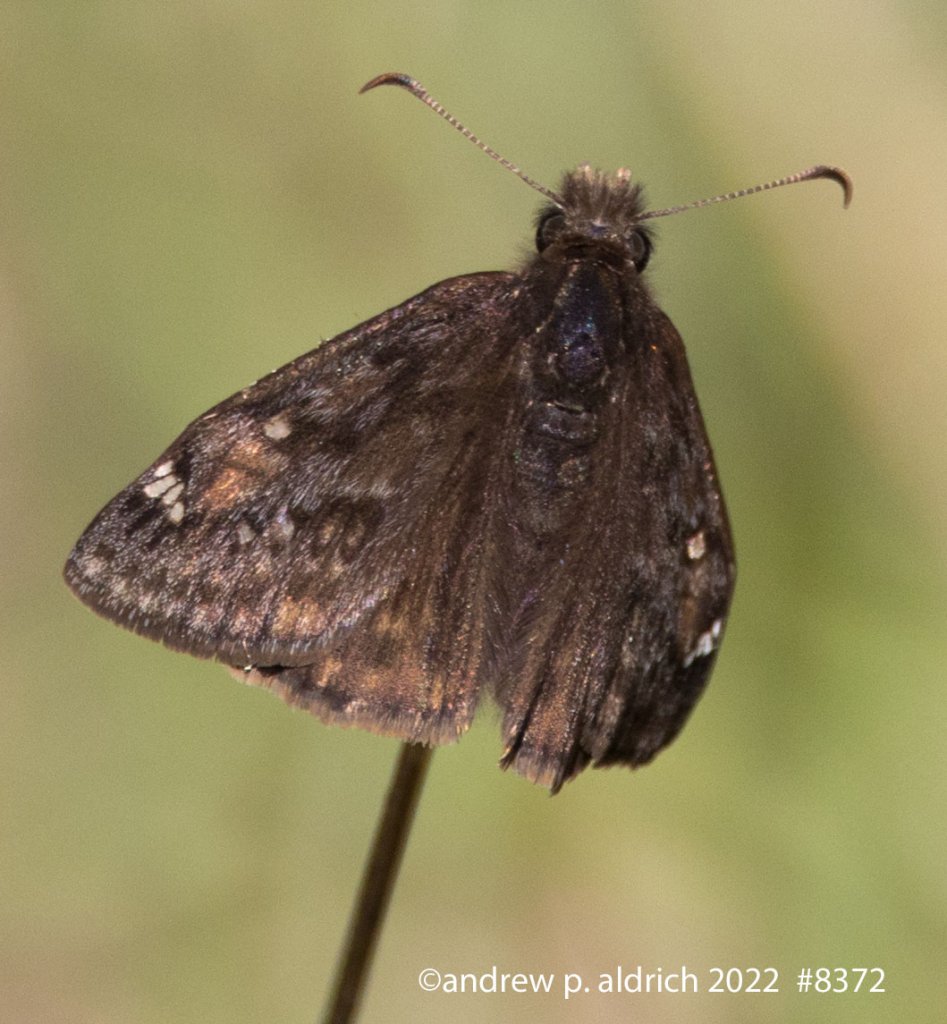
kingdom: Animalia
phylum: Arthropoda
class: Insecta
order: Lepidoptera
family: Hesperiidae
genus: Gesta
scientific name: Gesta
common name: Juvenal's Duskywing
